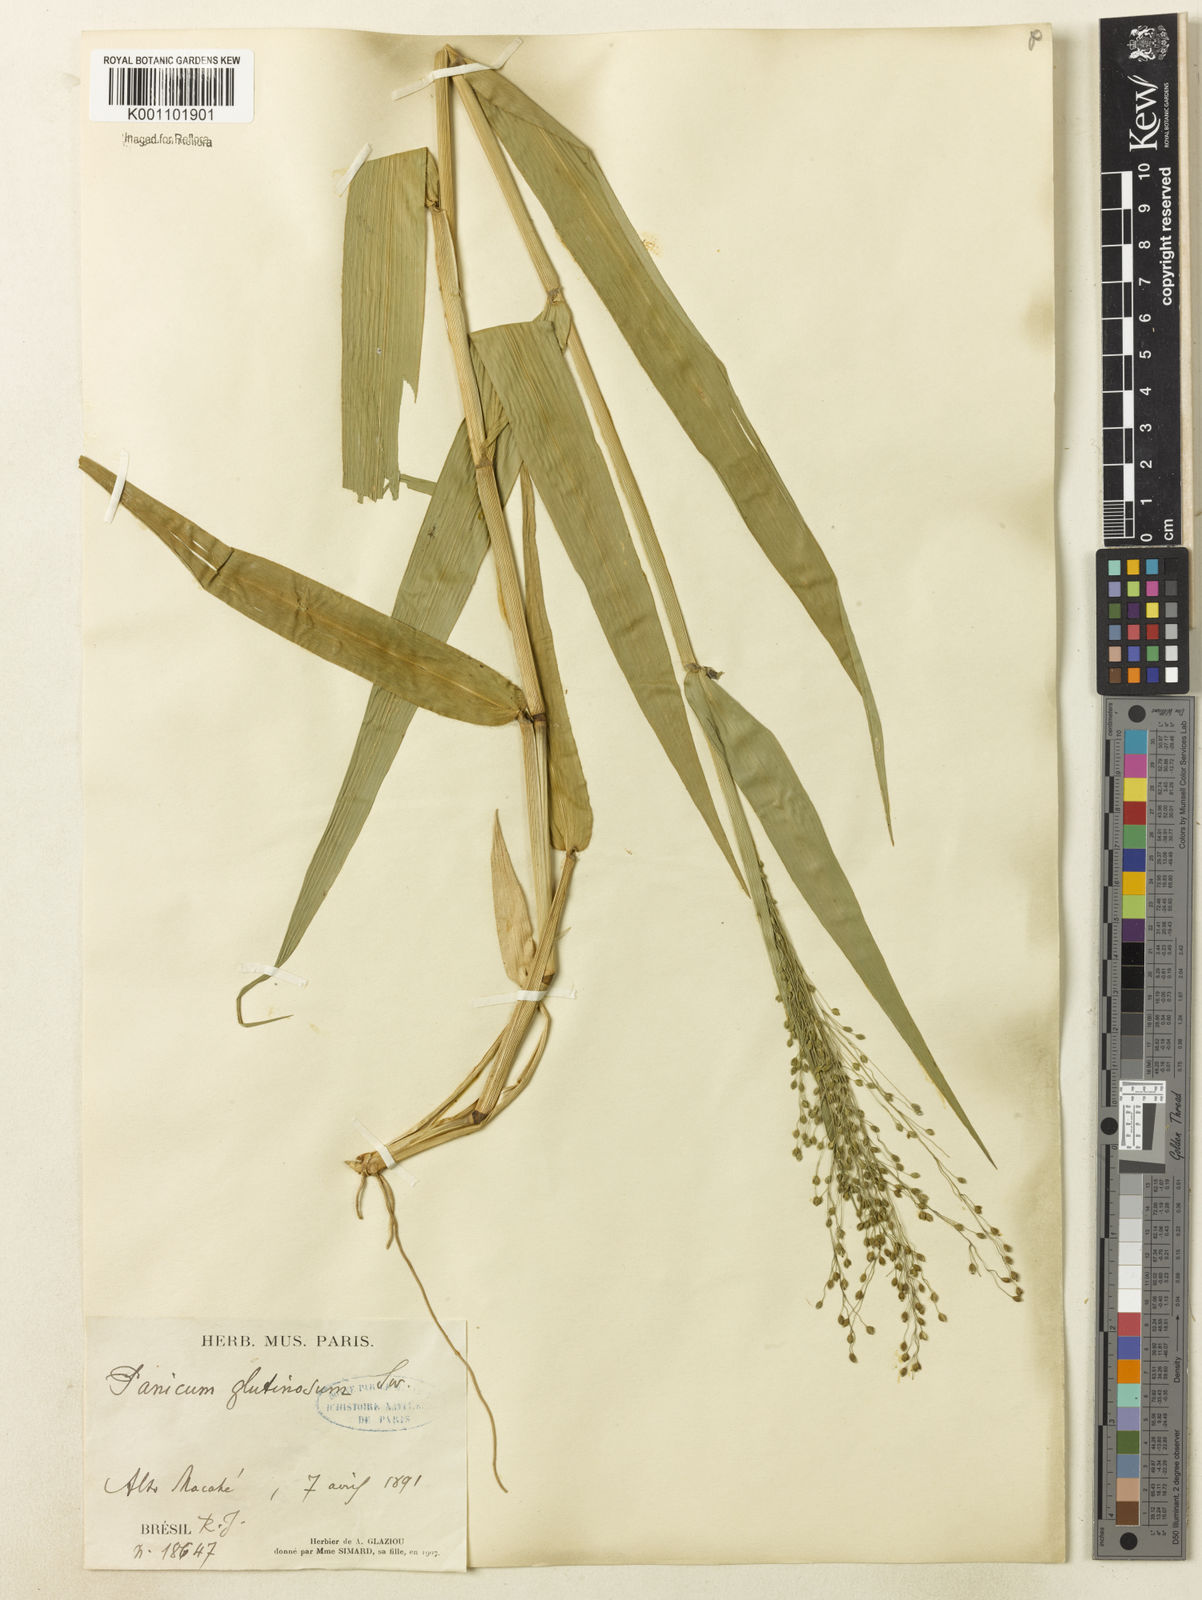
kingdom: Plantae
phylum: Tracheophyta
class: Liliopsida
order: Poales
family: Poaceae
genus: Homolepis
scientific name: Homolepis glutinosa
